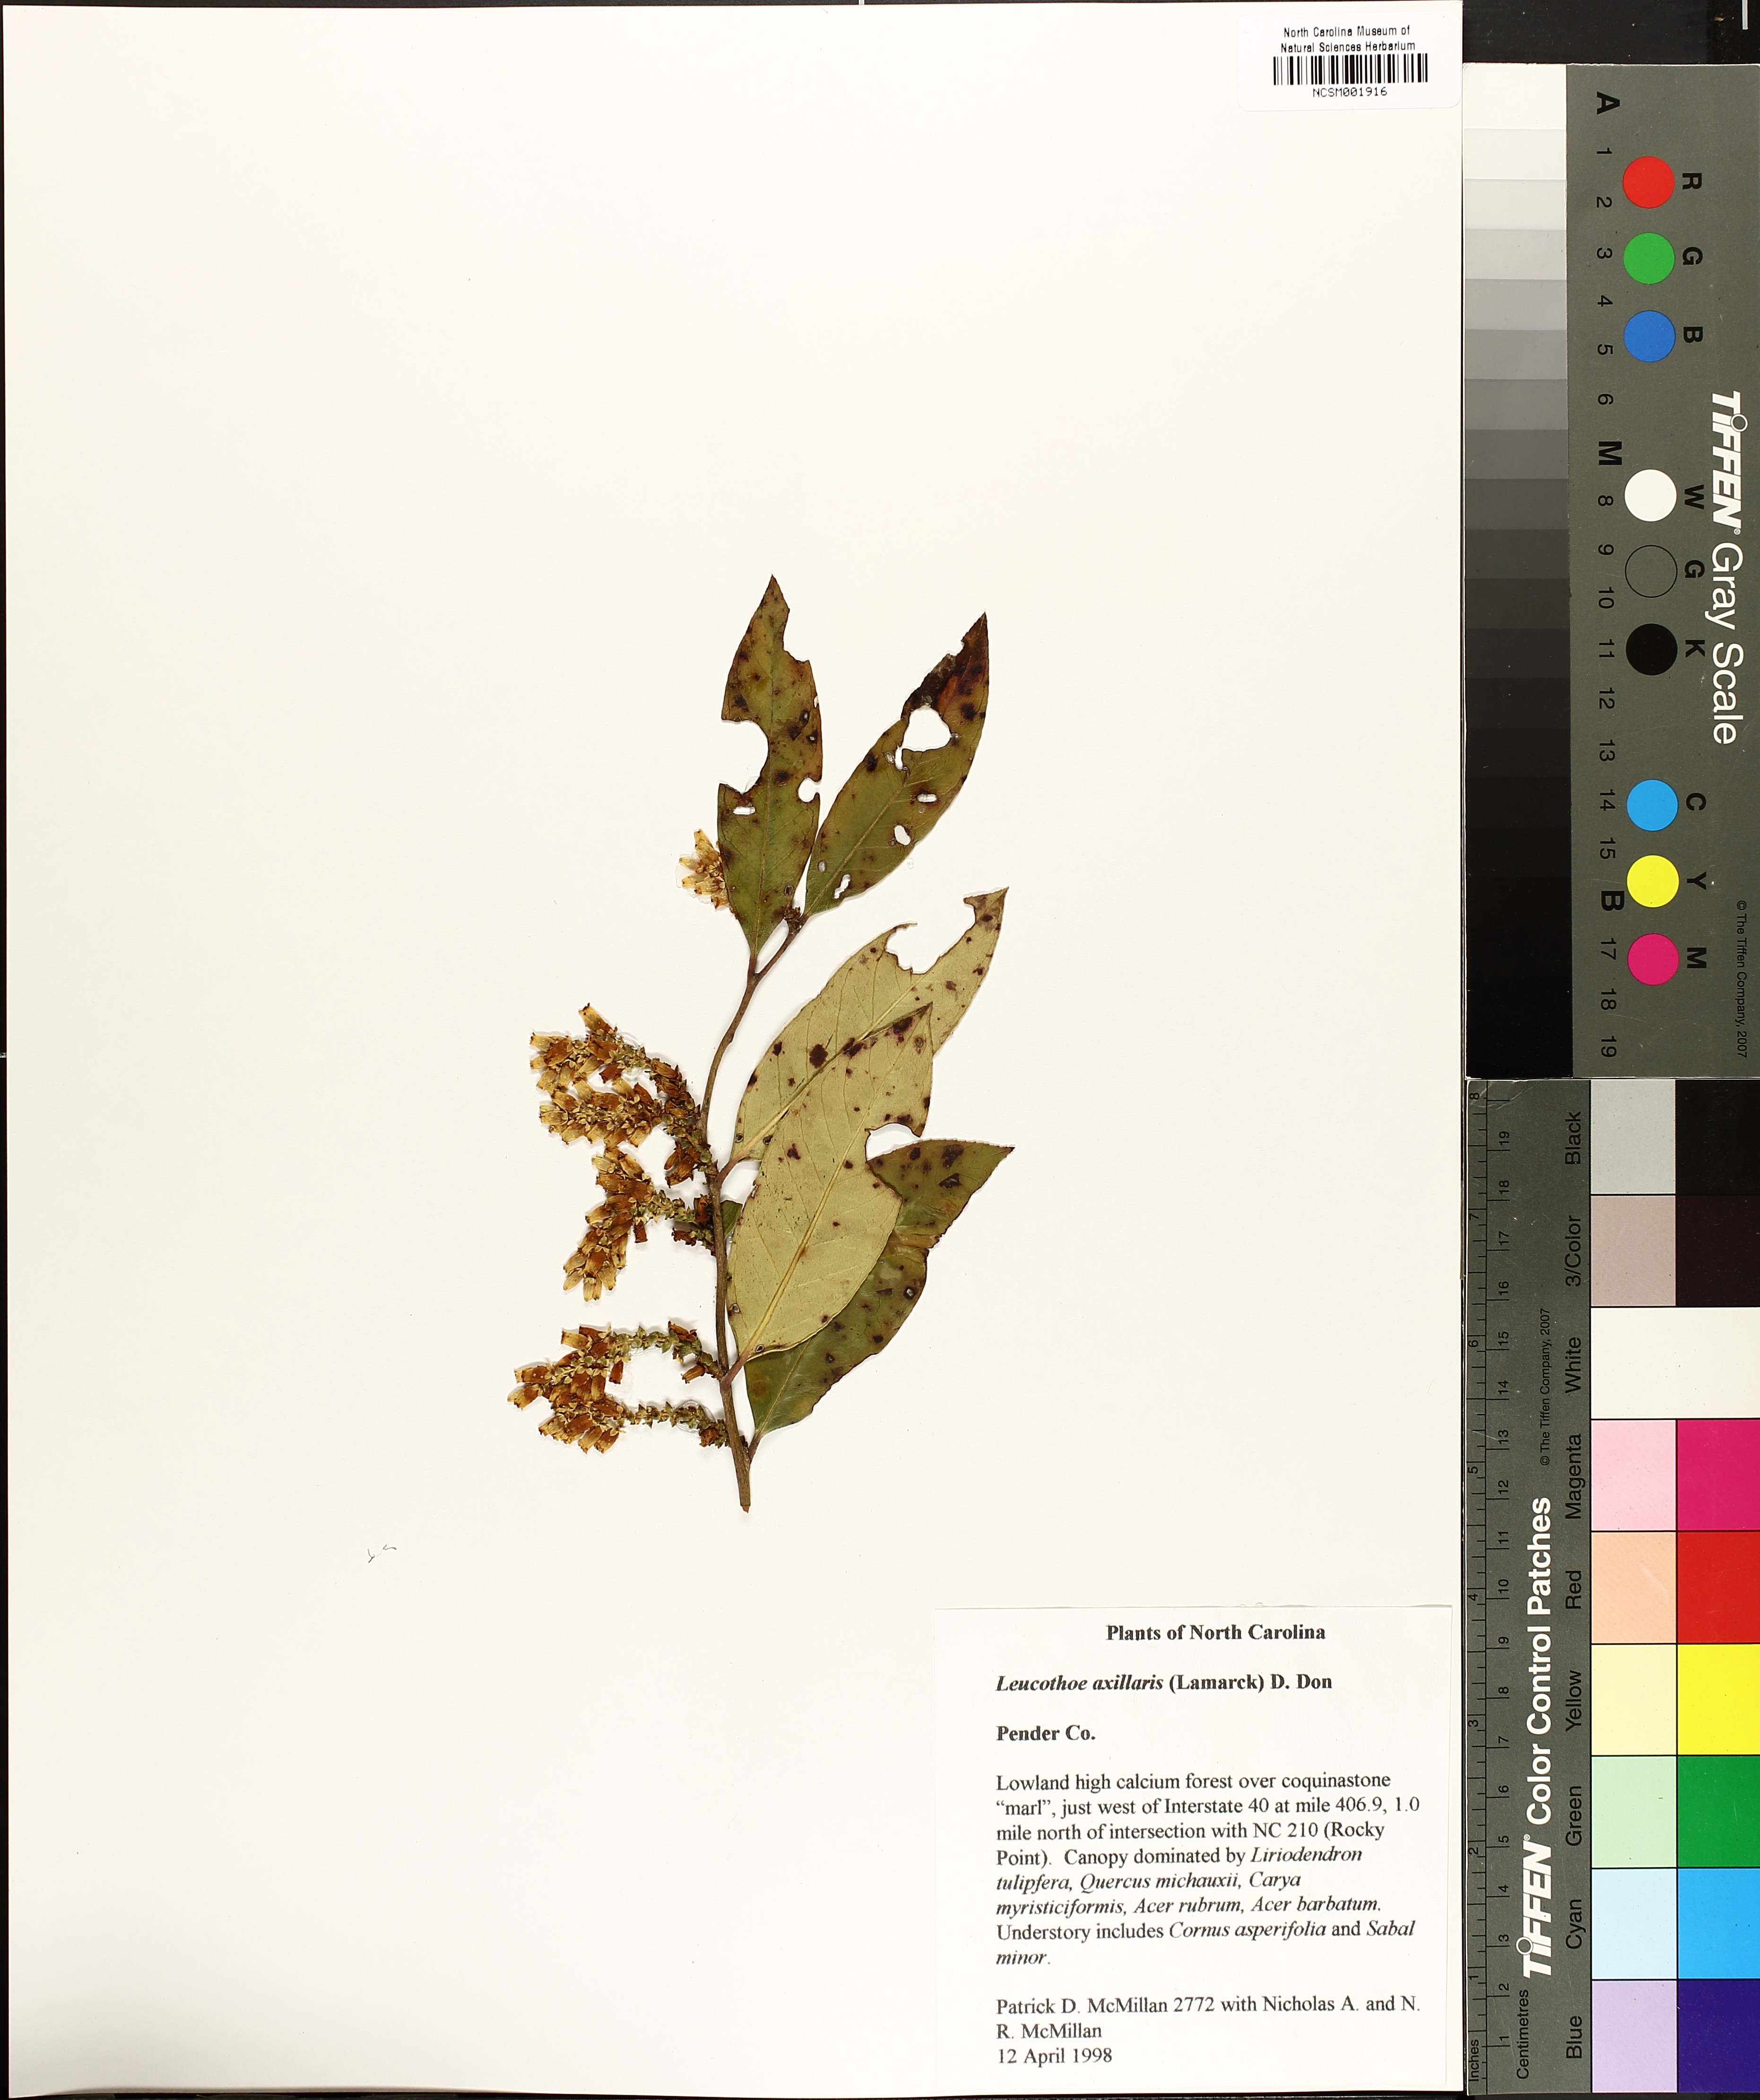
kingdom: Plantae
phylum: Tracheophyta
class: Magnoliopsida
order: Ericales
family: Ericaceae
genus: Leucothoe
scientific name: Leucothoe axillaris
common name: Leucothoe
